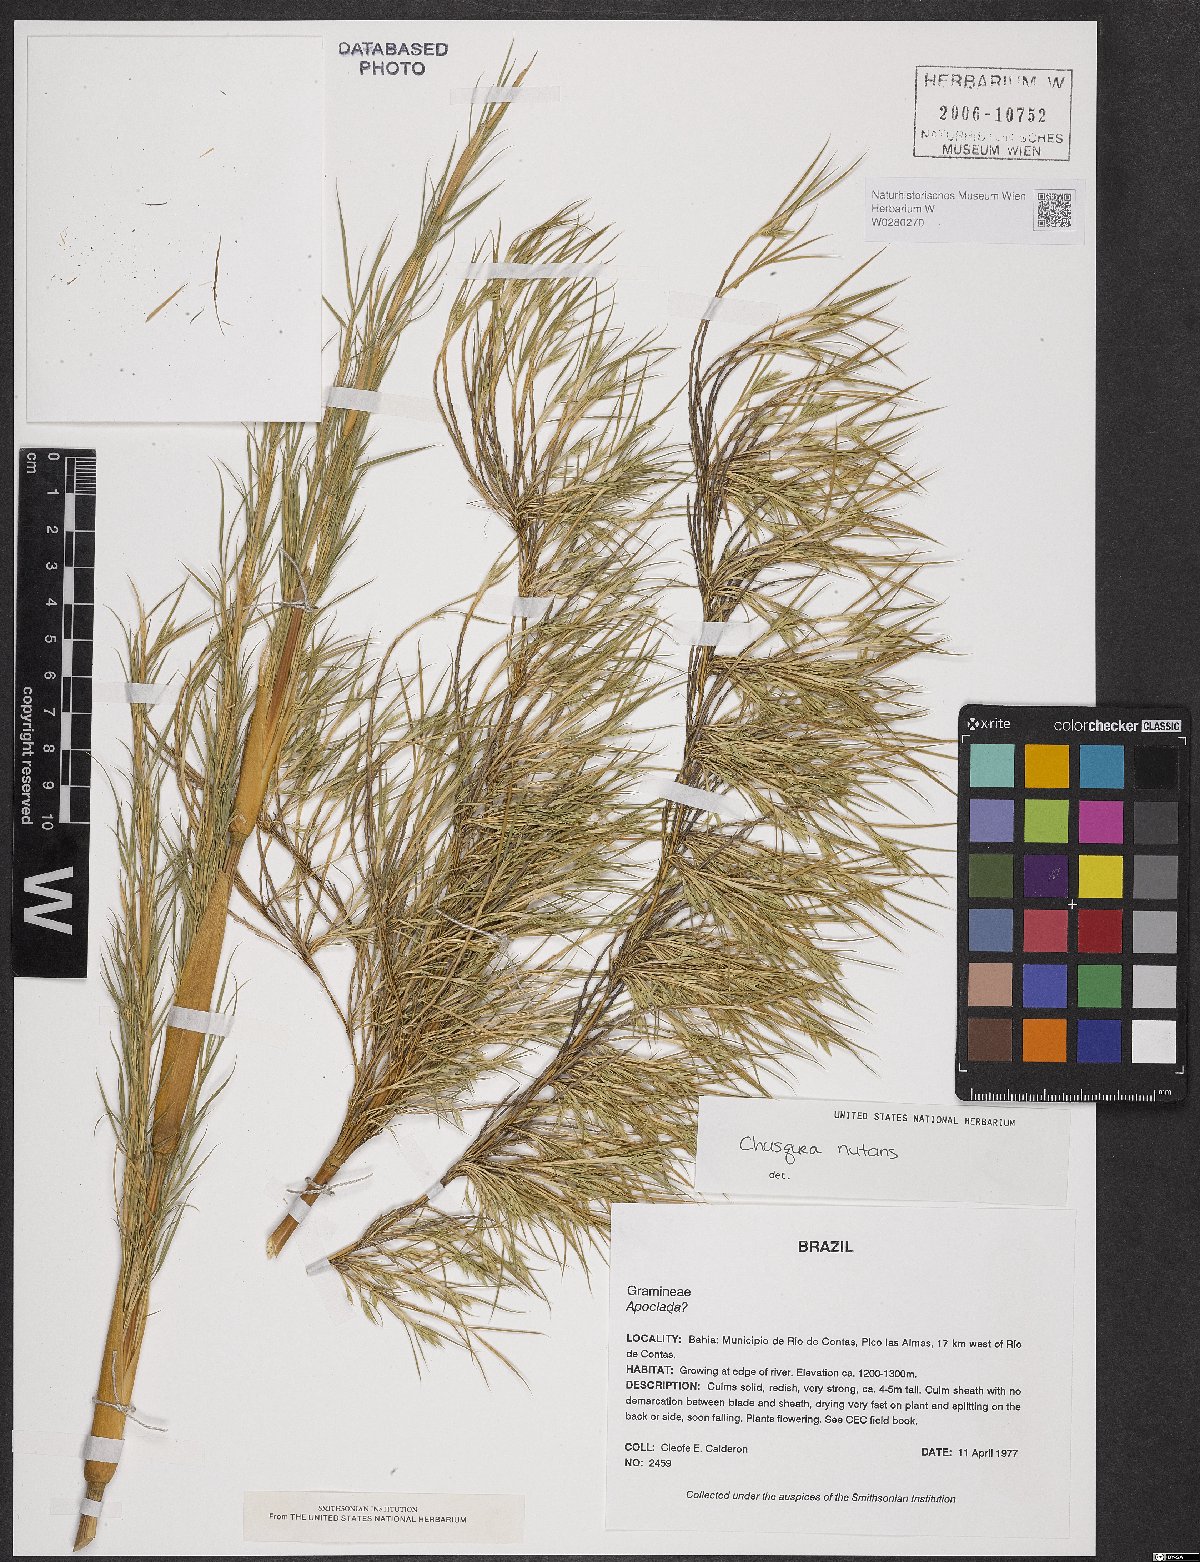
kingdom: Plantae
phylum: Tracheophyta
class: Liliopsida
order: Poales
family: Poaceae
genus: Chusquea
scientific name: Chusquea nutans
